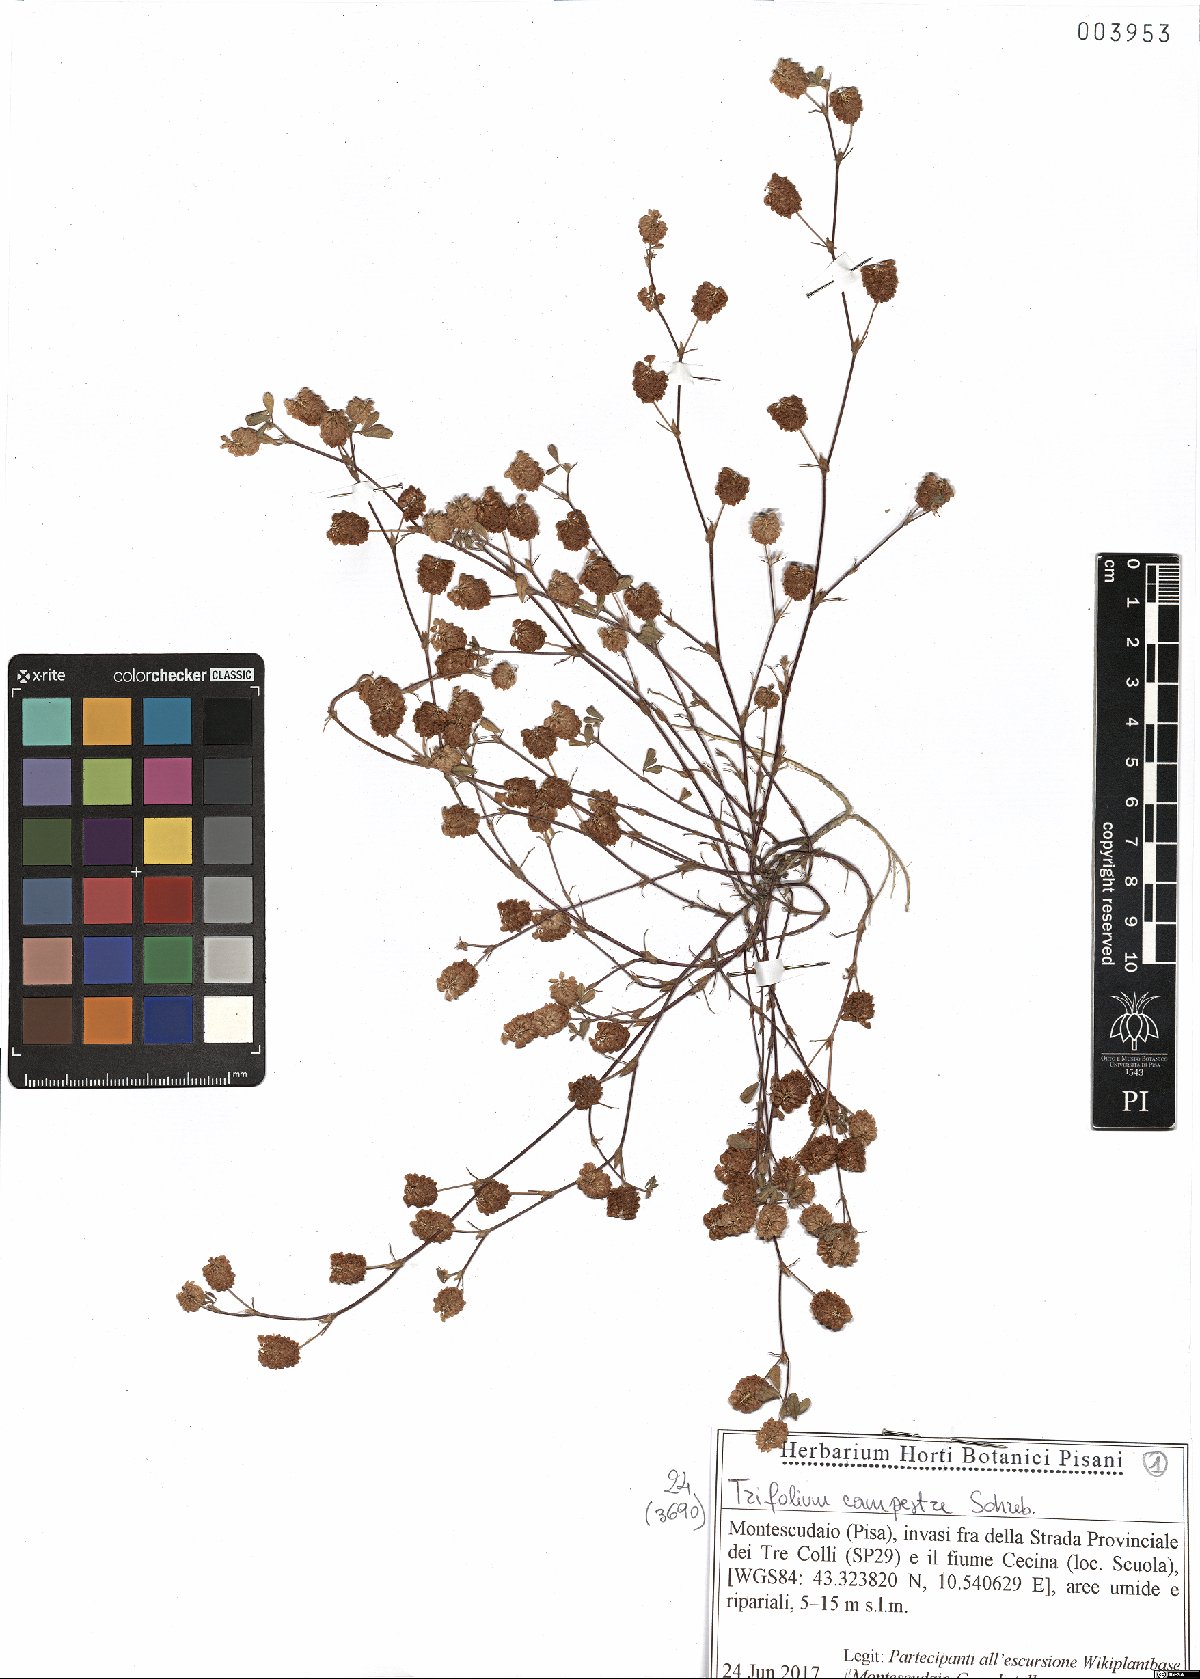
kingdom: Plantae
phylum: Tracheophyta
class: Magnoliopsida
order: Fabales
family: Fabaceae
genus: Trifolium
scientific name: Trifolium campestre
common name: Field clover
